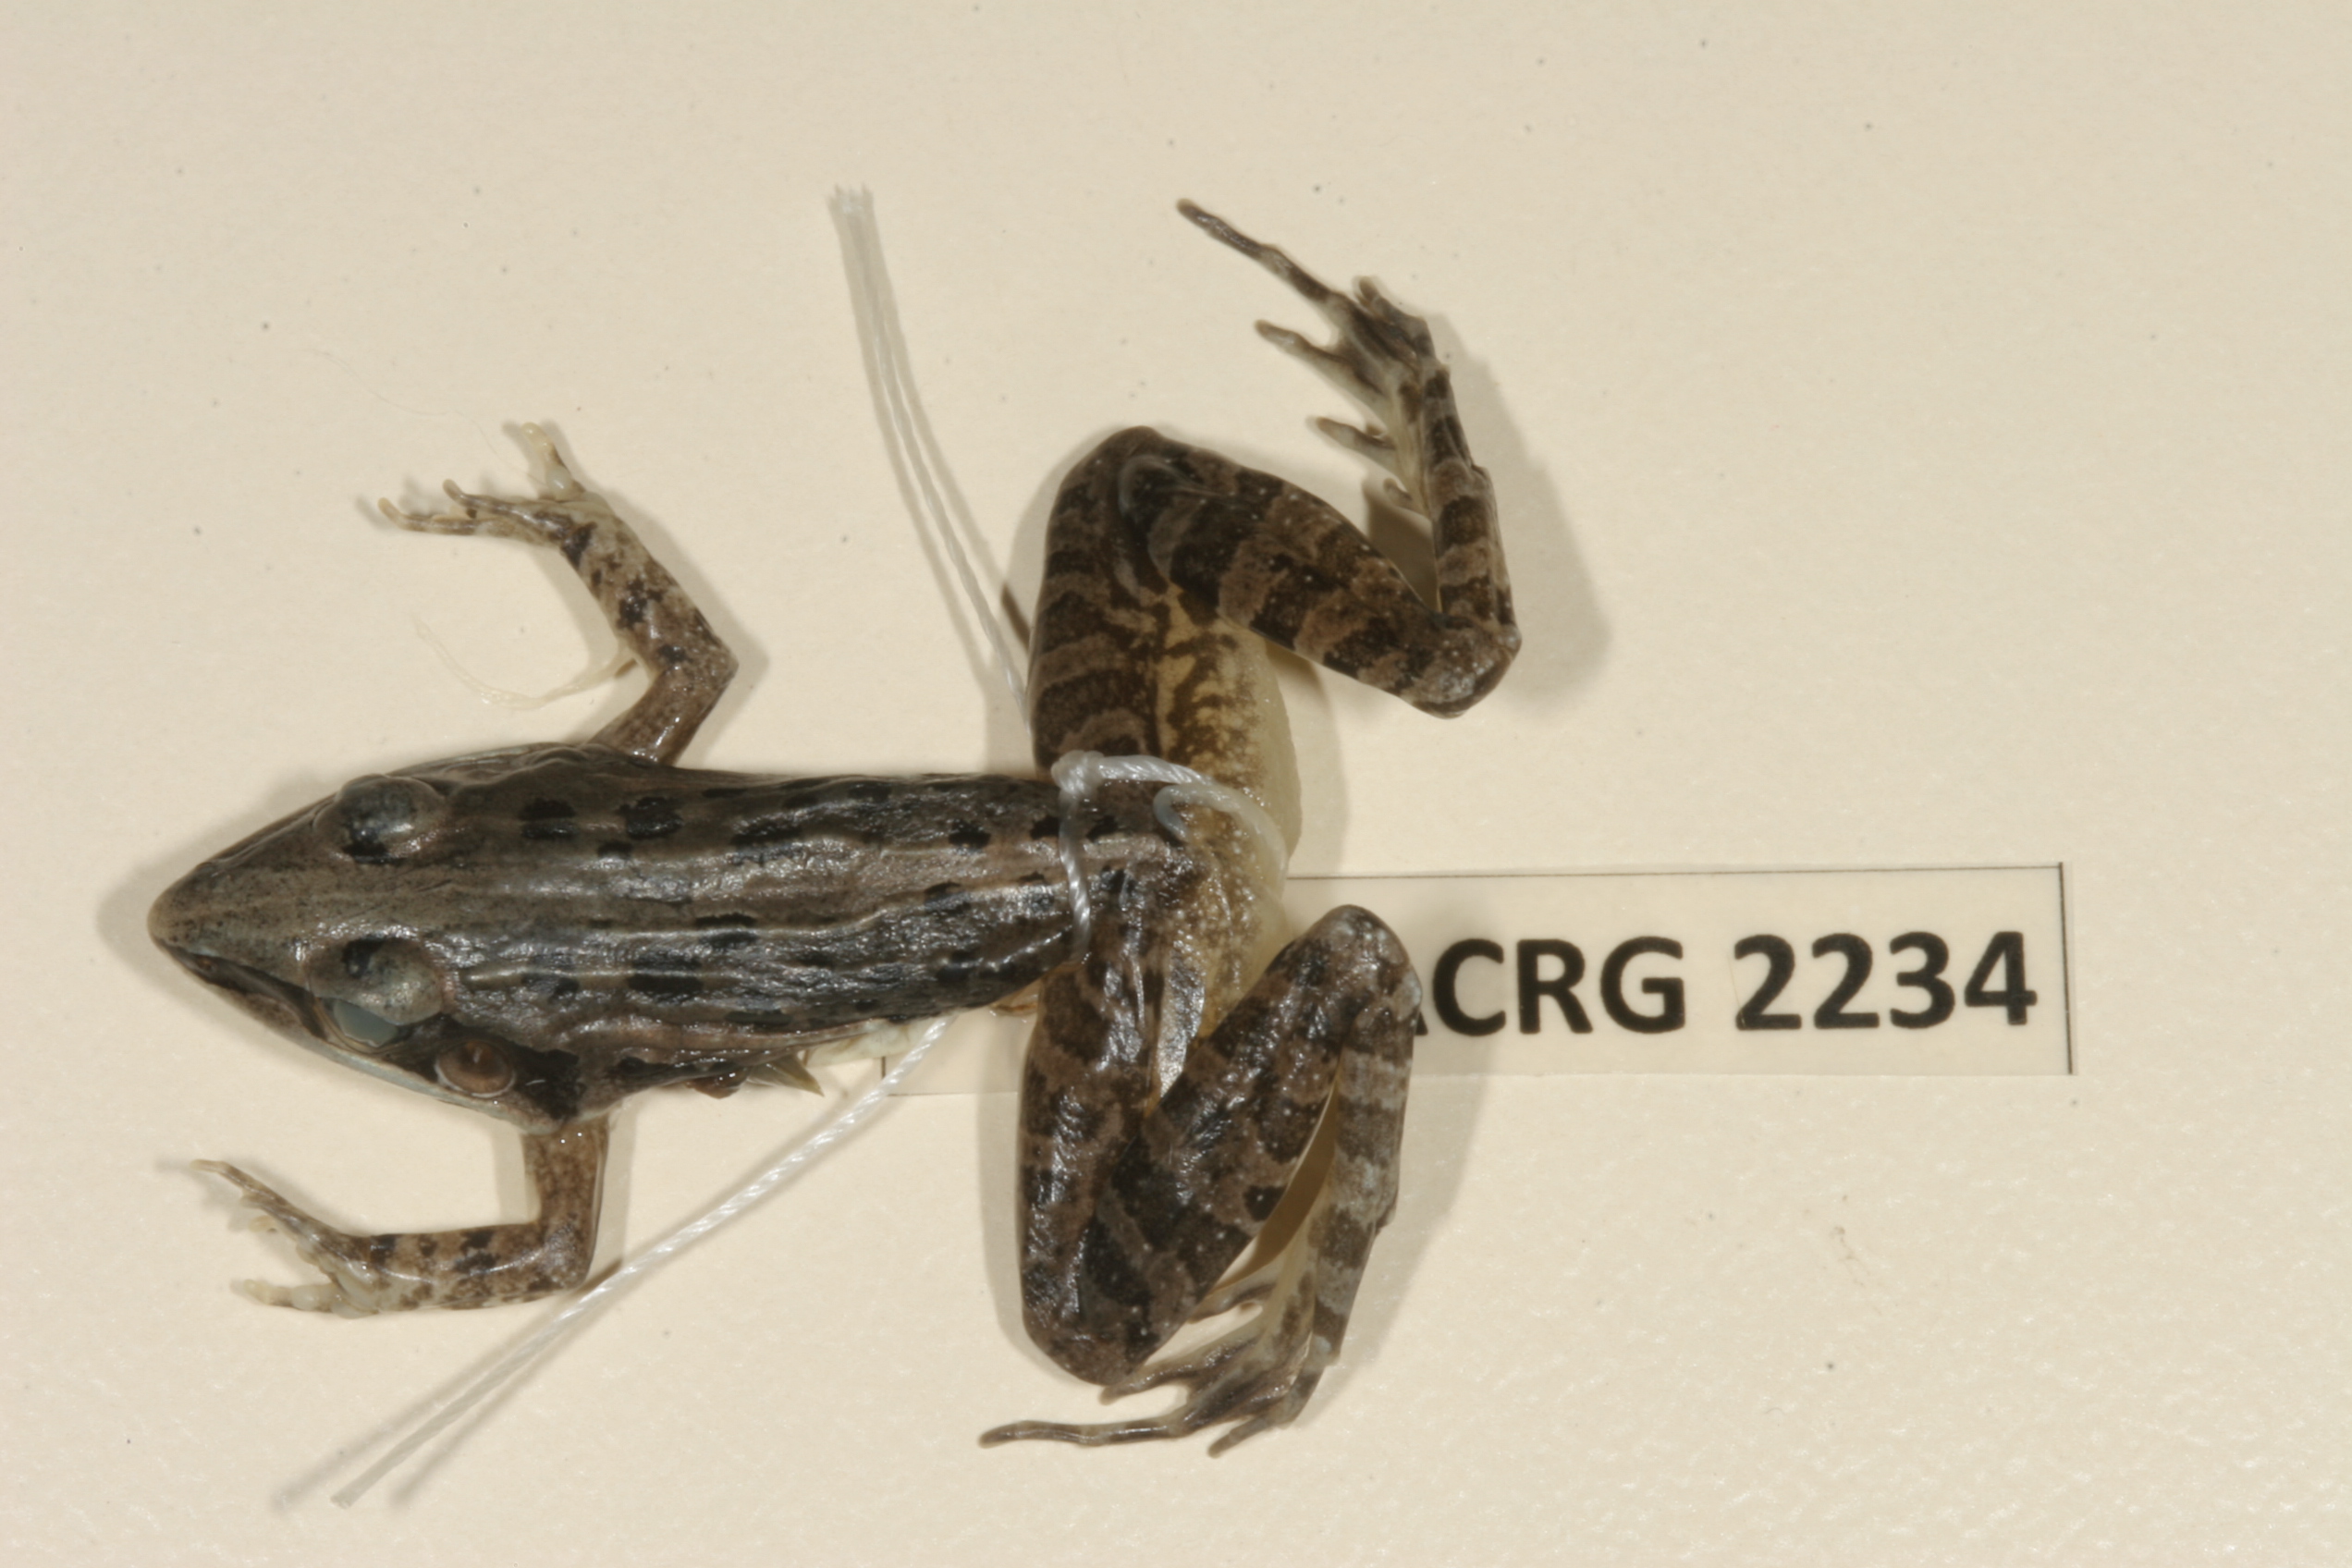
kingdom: Animalia
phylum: Chordata
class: Amphibia
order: Anura
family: Ptychadenidae
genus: Ptychadena
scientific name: Ptychadena mossambica
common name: Mozambique ridged frog
